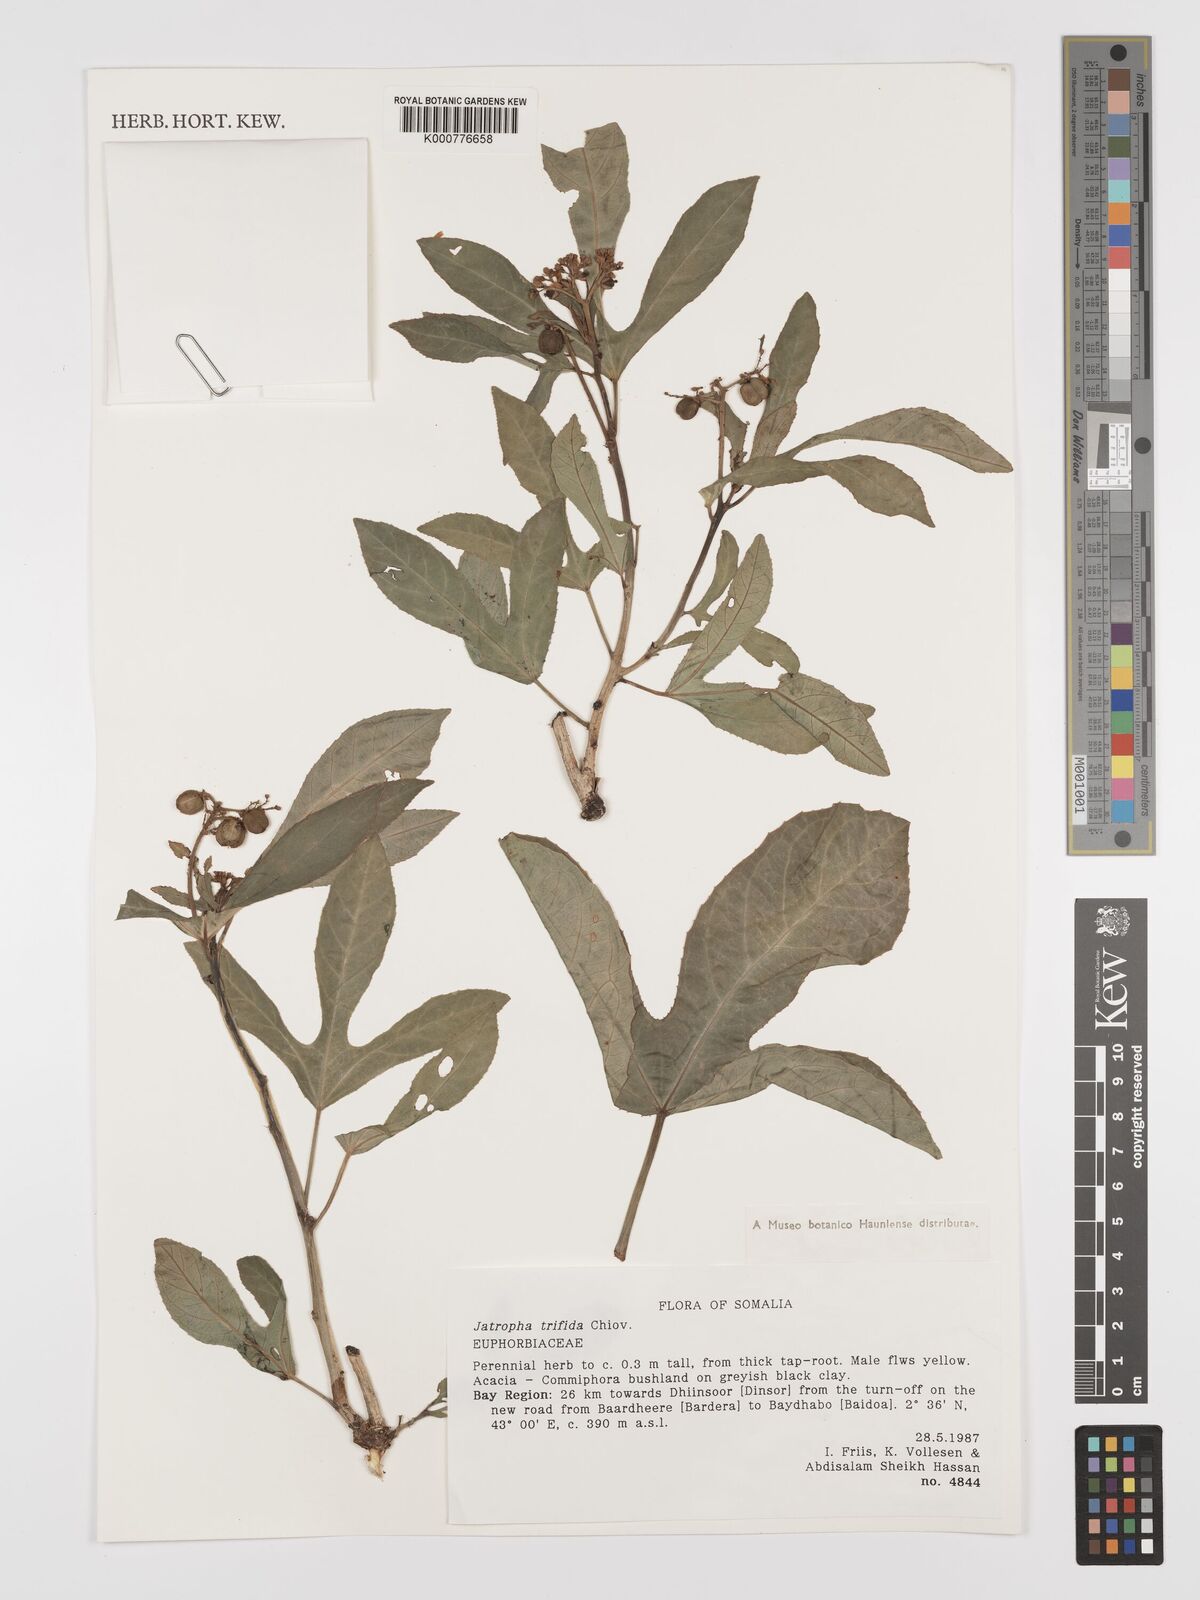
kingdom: Plantae
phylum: Tracheophyta
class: Magnoliopsida
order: Malpighiales
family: Euphorbiaceae
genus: Jatropha
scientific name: Jatropha trifida
